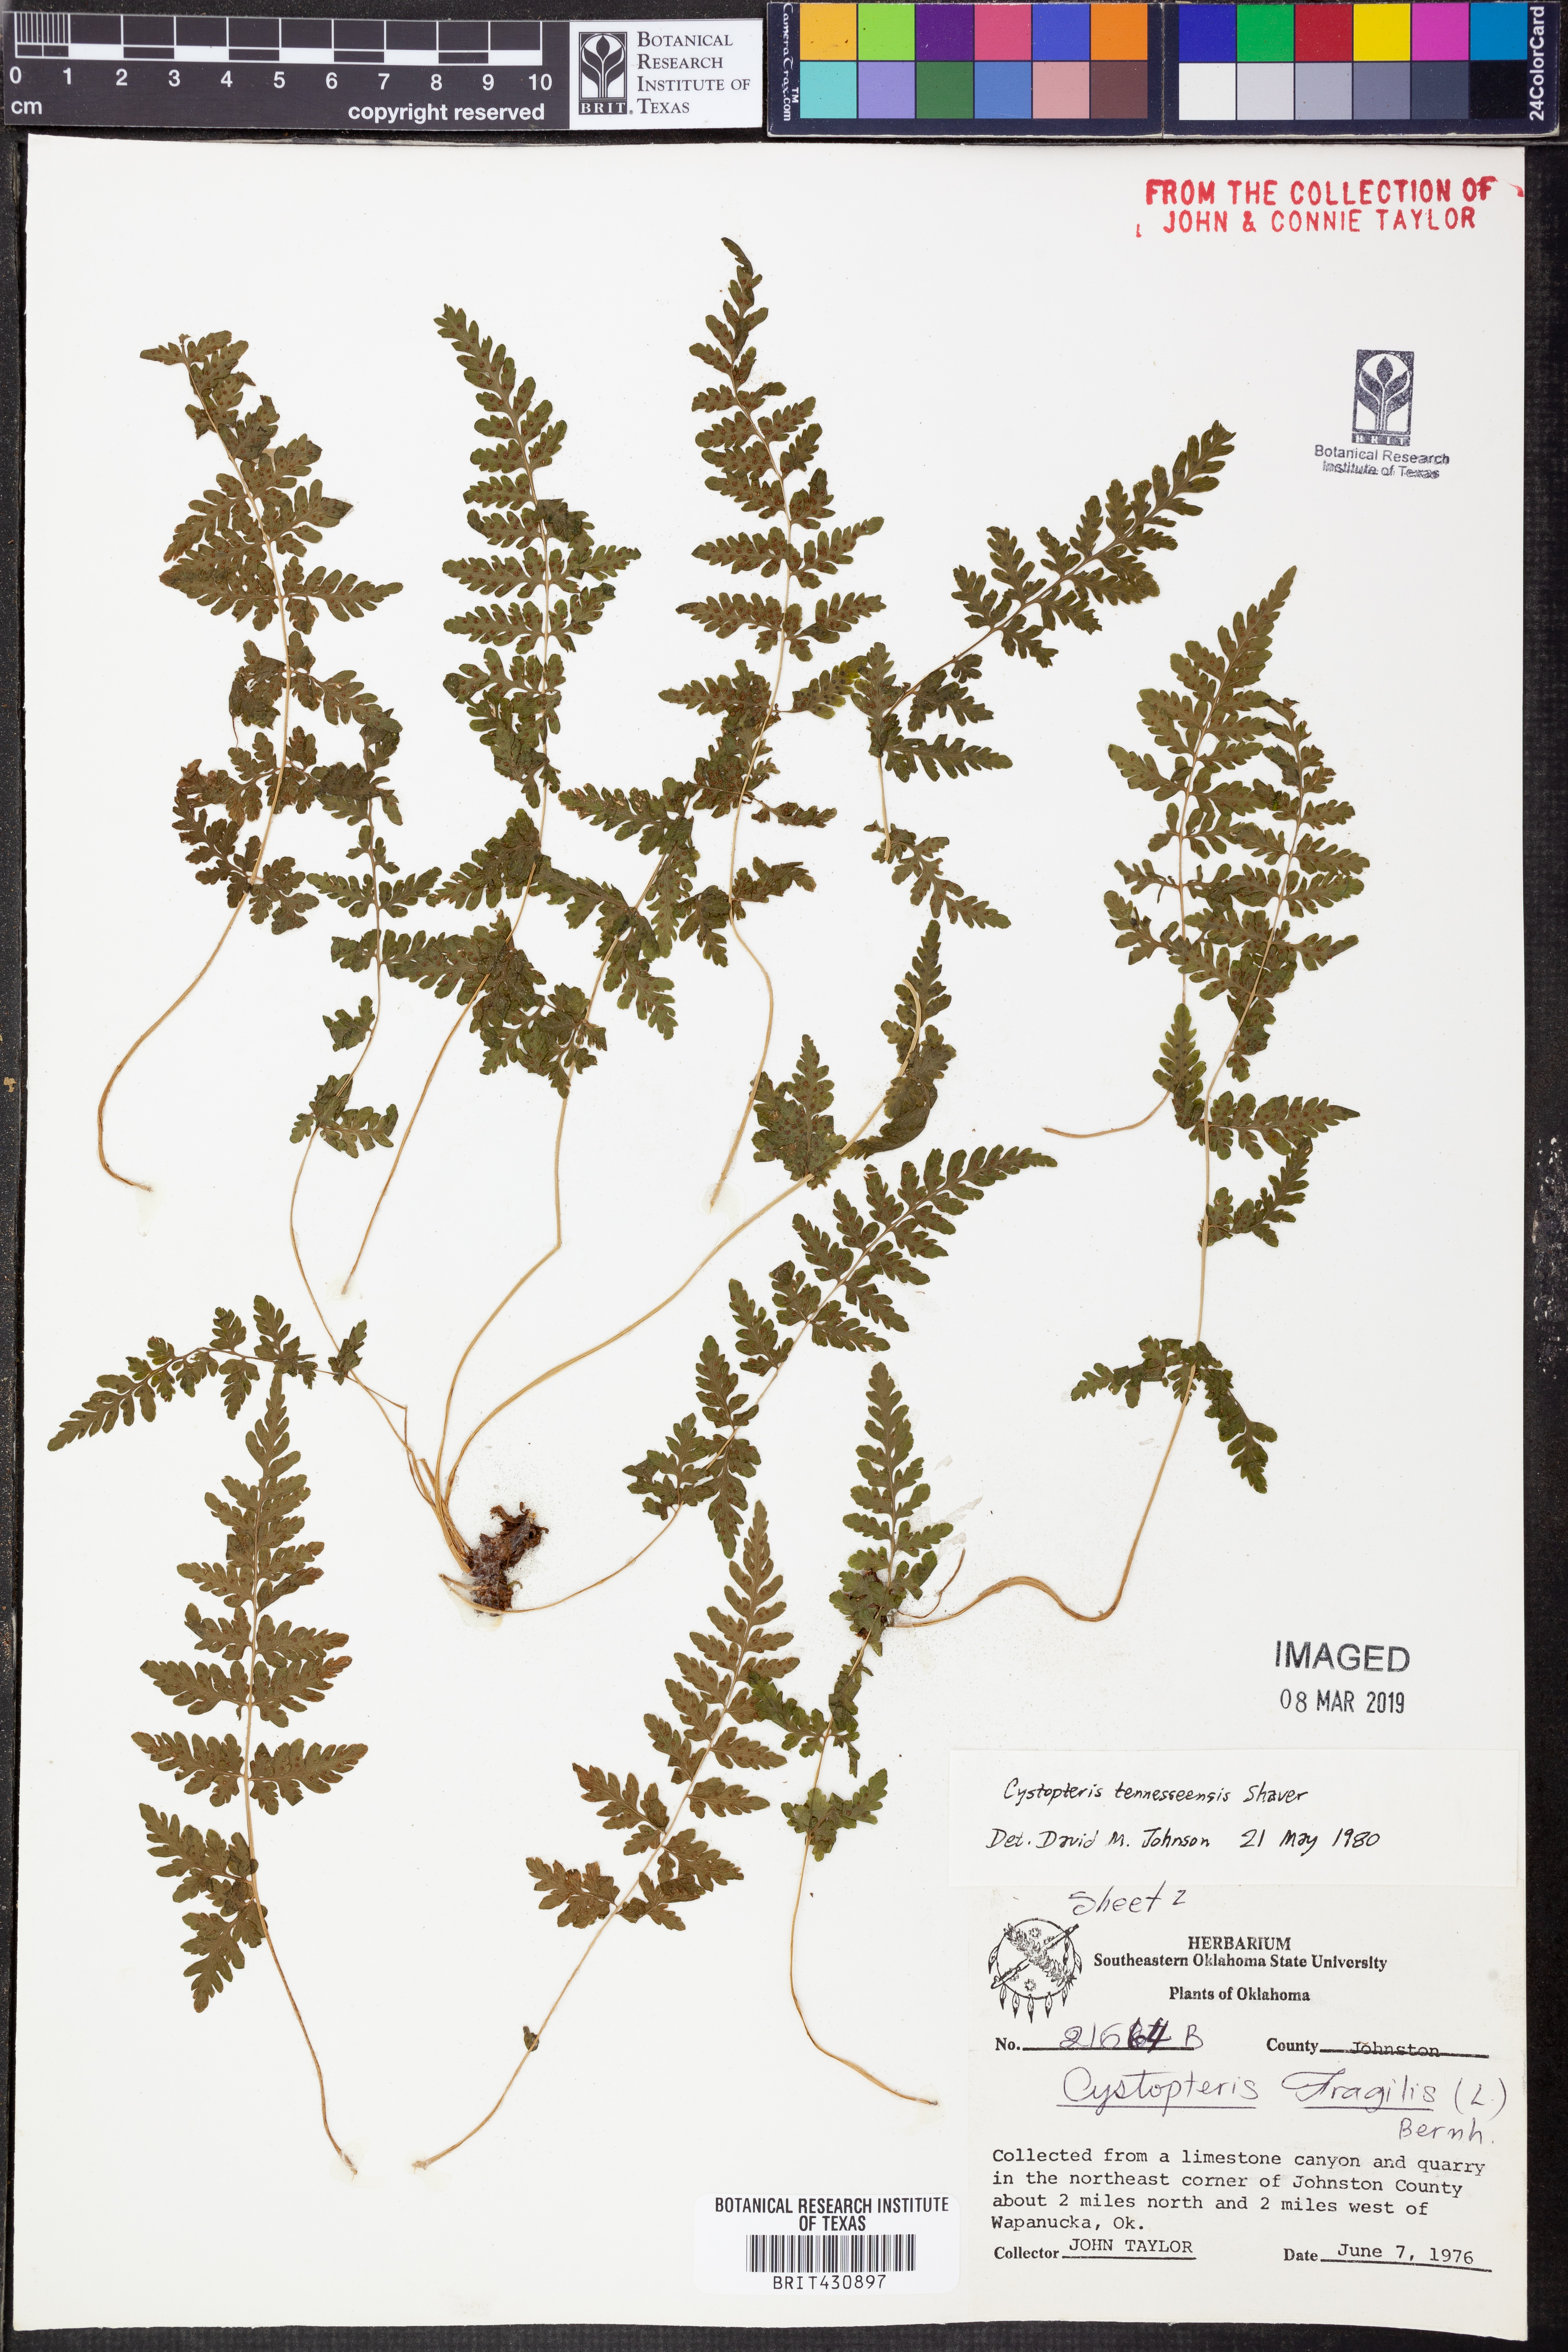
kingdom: Plantae
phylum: Tracheophyta
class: Polypodiopsida
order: Polypodiales
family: Cystopteridaceae
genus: Cystopteris
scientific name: Cystopteris tennesseensis
